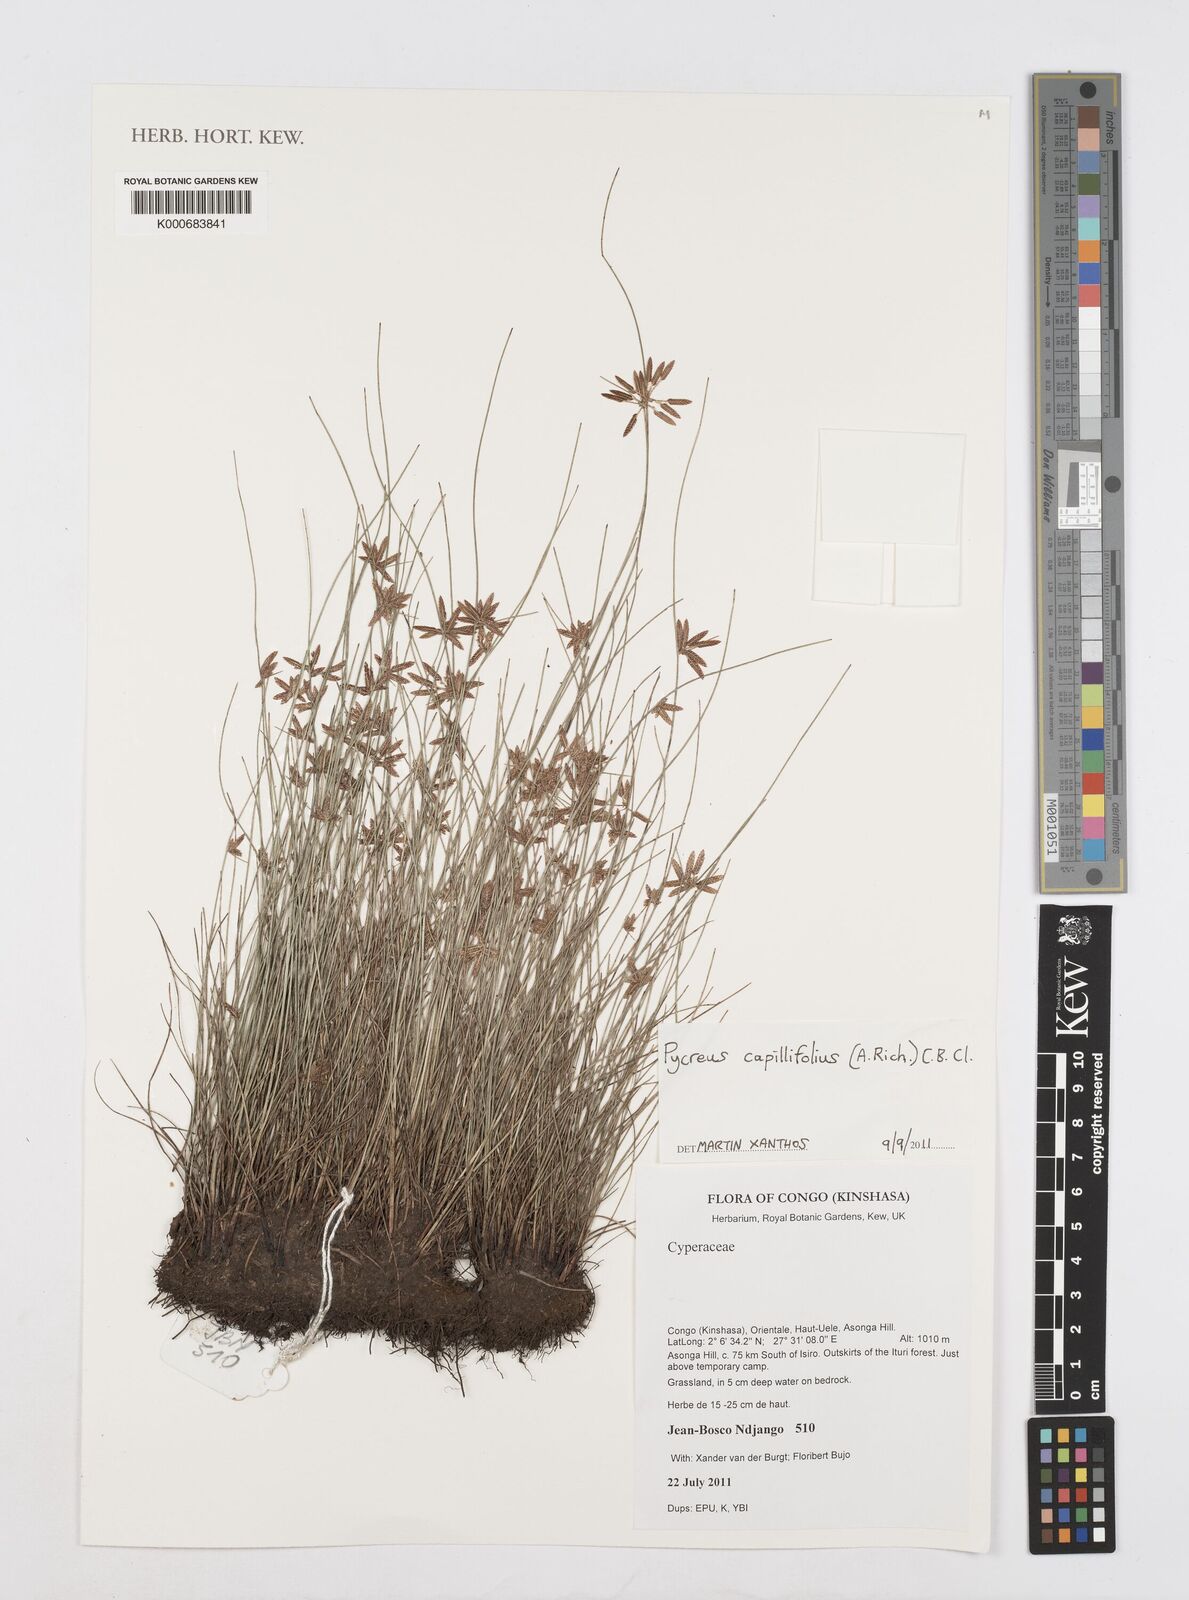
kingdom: Plantae
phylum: Tracheophyta
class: Liliopsida
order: Poales
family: Cyperaceae
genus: Cyperus
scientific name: Cyperus capillifolius
